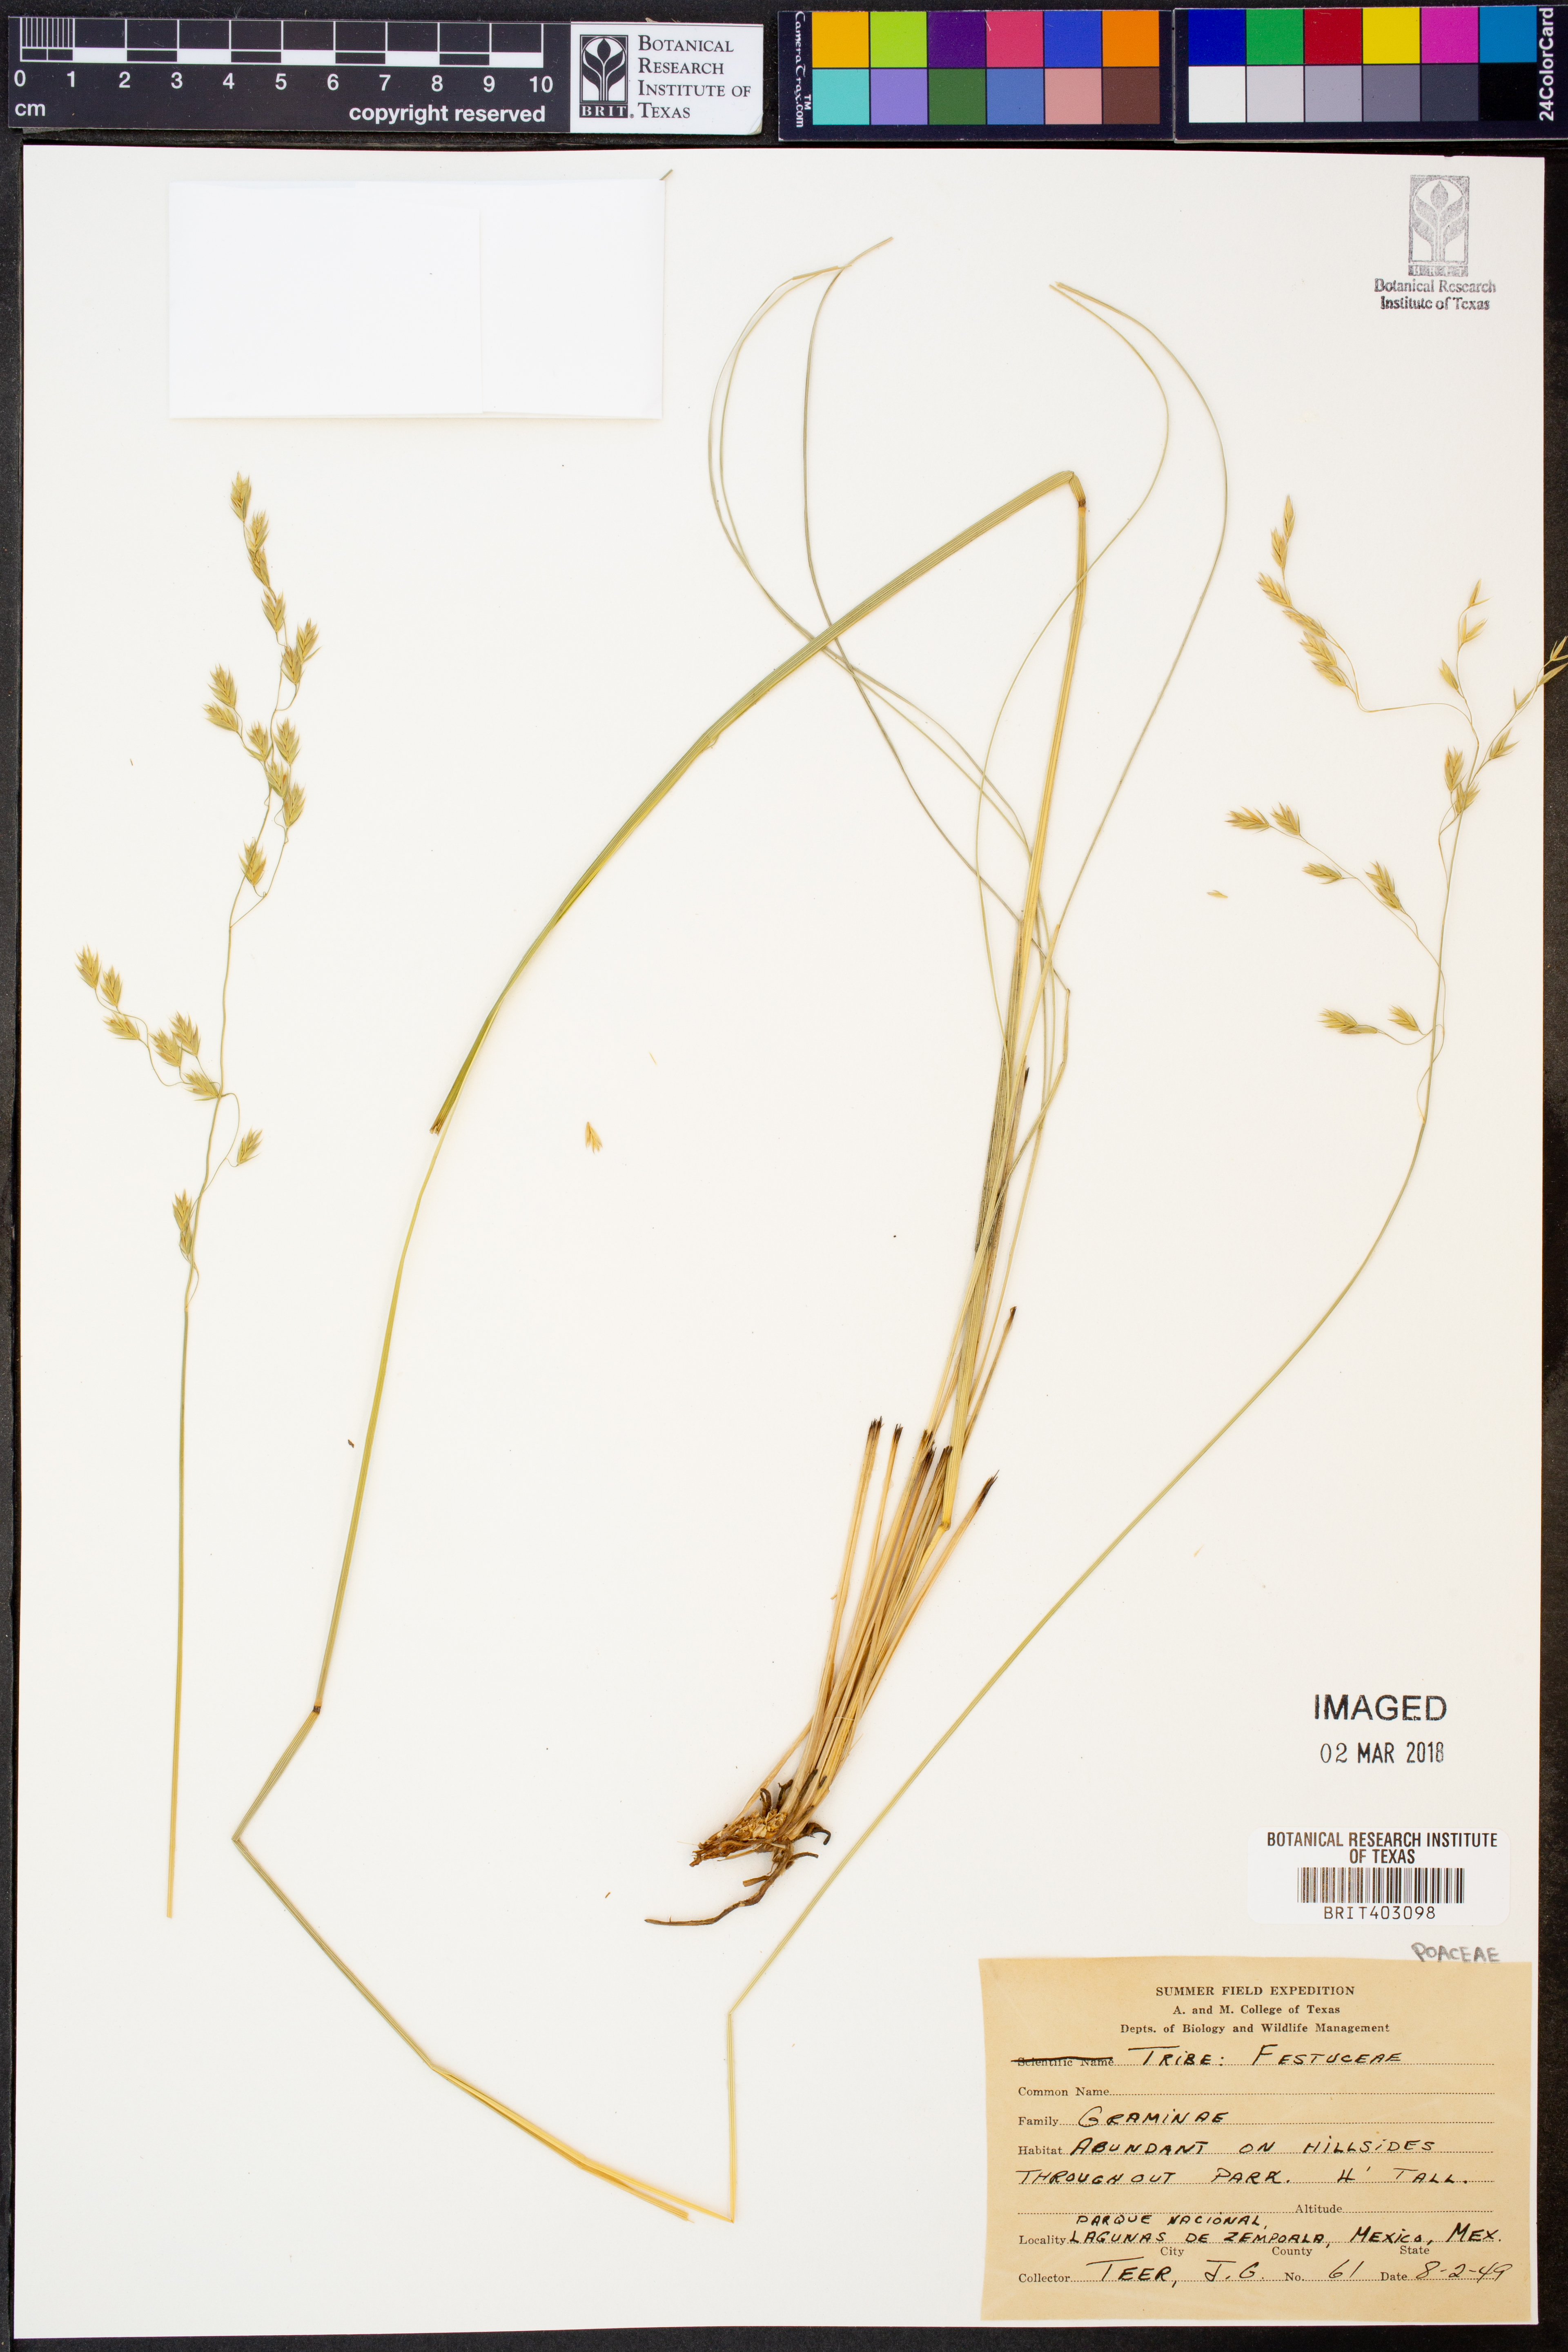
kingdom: Plantae
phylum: Tracheophyta
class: Liliopsida
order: Poales
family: Poaceae
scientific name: Poaceae
